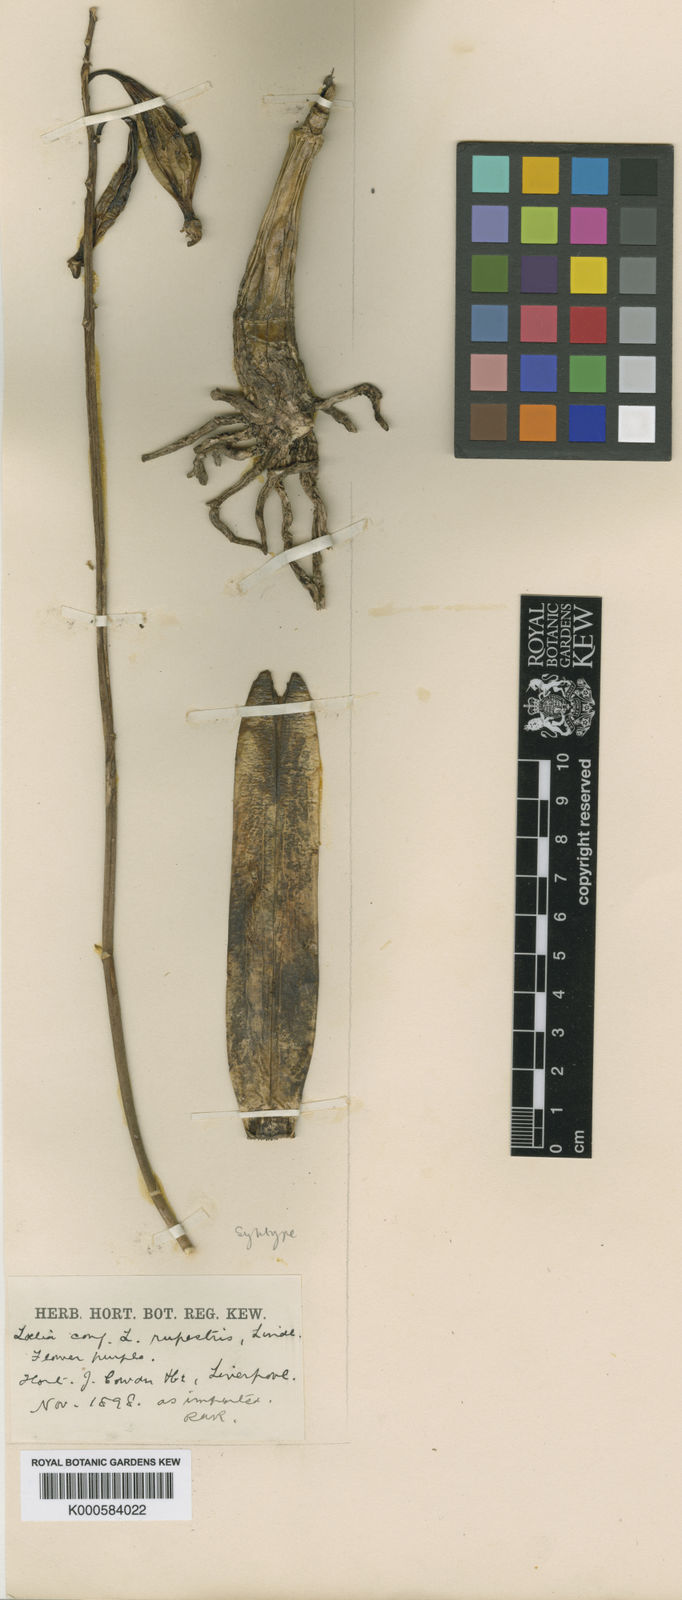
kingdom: Plantae
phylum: Tracheophyta
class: Liliopsida
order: Asparagales
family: Orchidaceae
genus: Cattleya
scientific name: Cattleya tenebrosa
